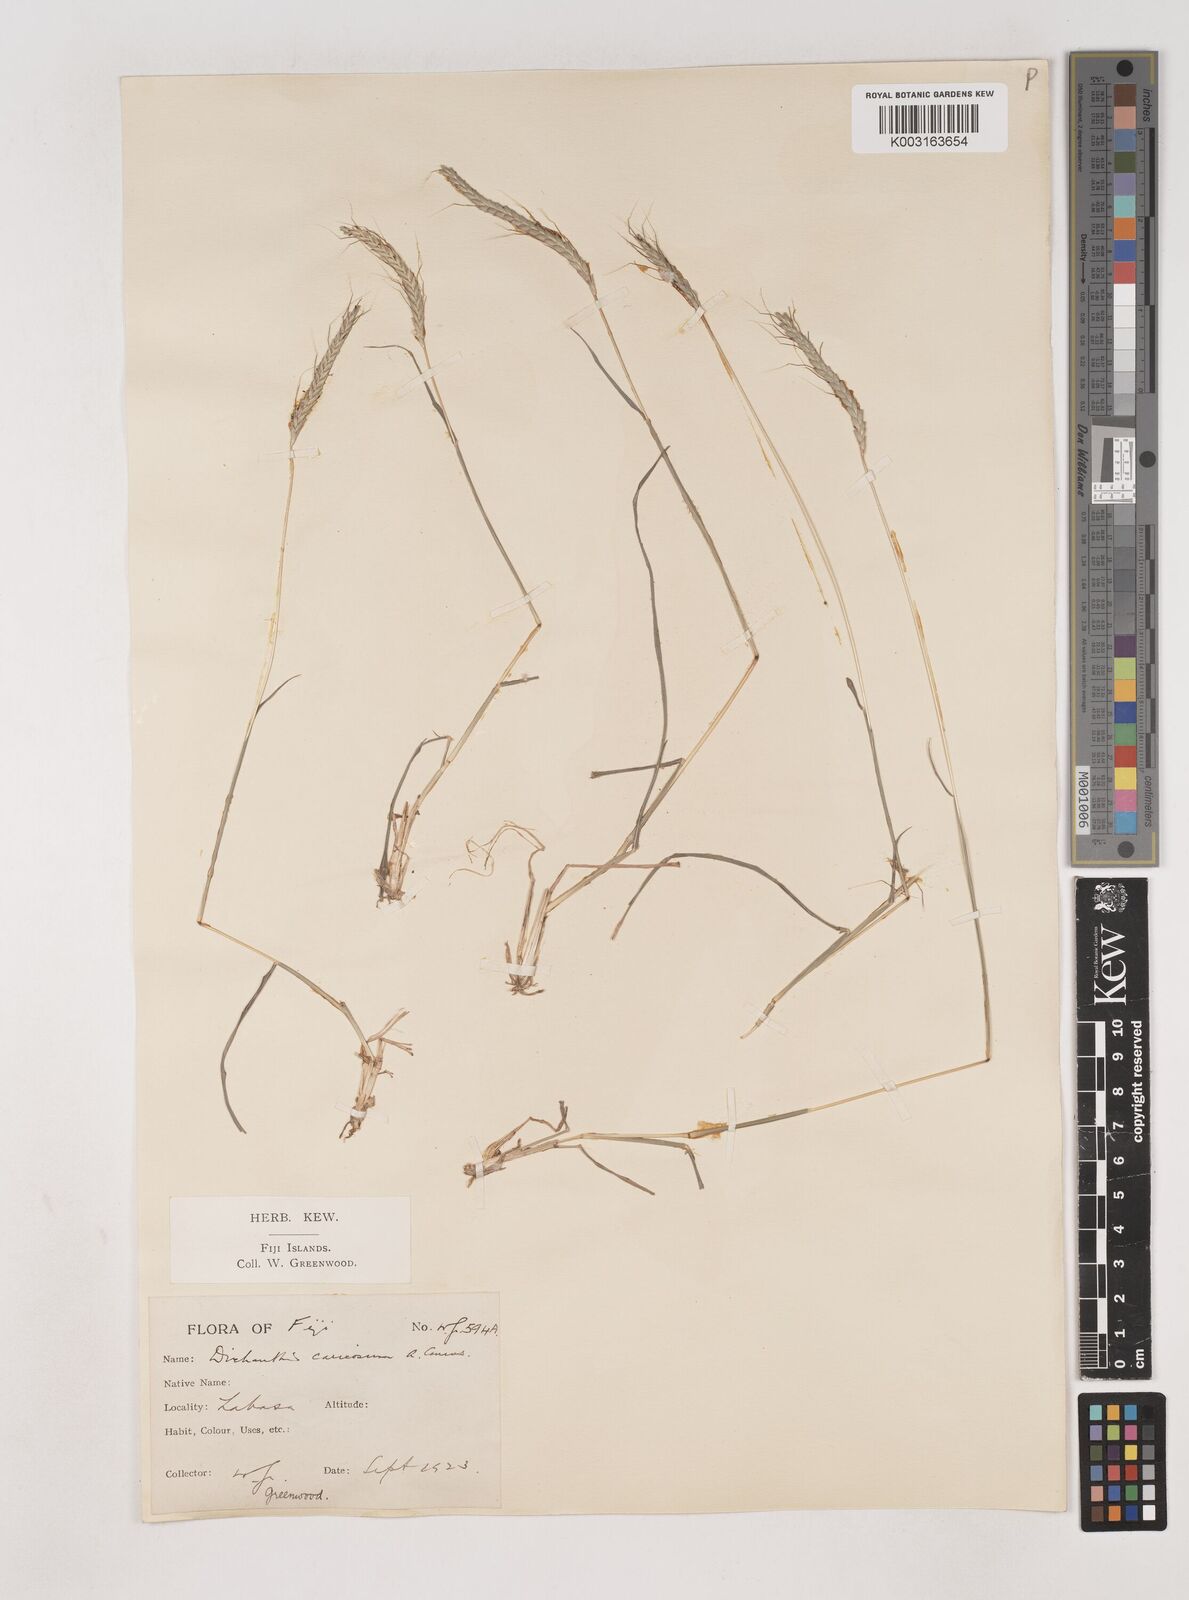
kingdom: Plantae
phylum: Tracheophyta
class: Liliopsida
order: Poales
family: Poaceae
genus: Dichanthium
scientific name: Dichanthium caricosum
